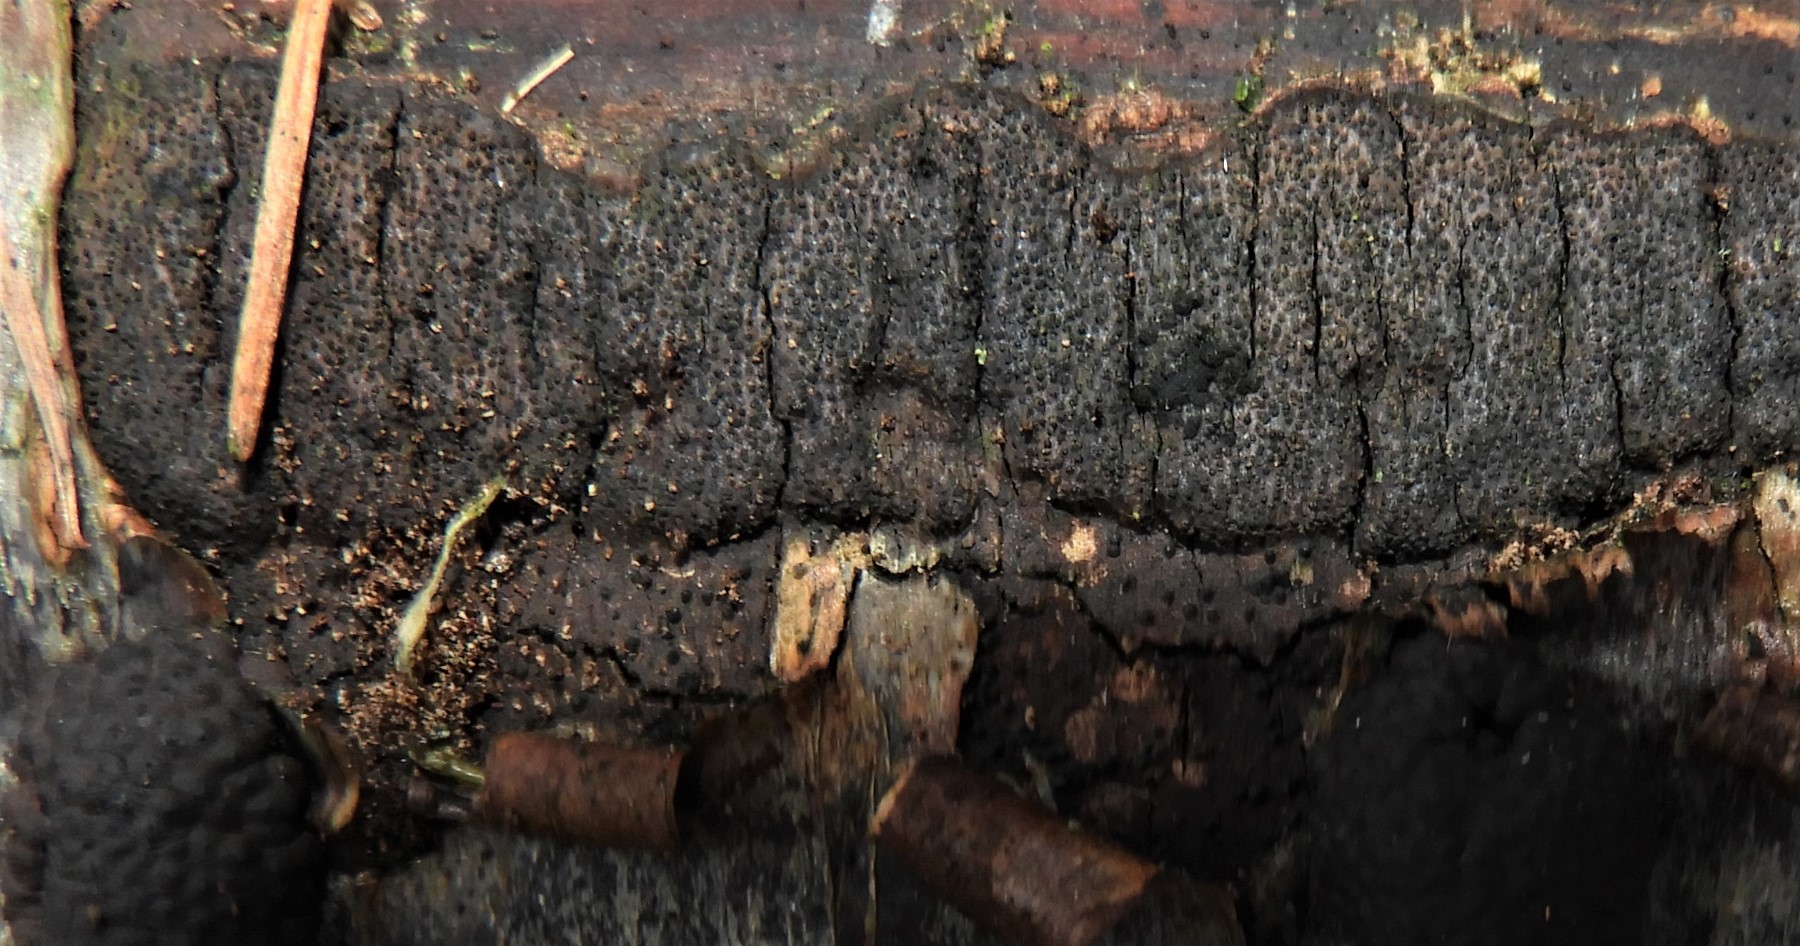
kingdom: Fungi
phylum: Ascomycota
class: Sordariomycetes
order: Xylariales
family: Diatrypaceae
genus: Eutypa
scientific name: Eutypa spinosa
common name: grov kulskorpe
